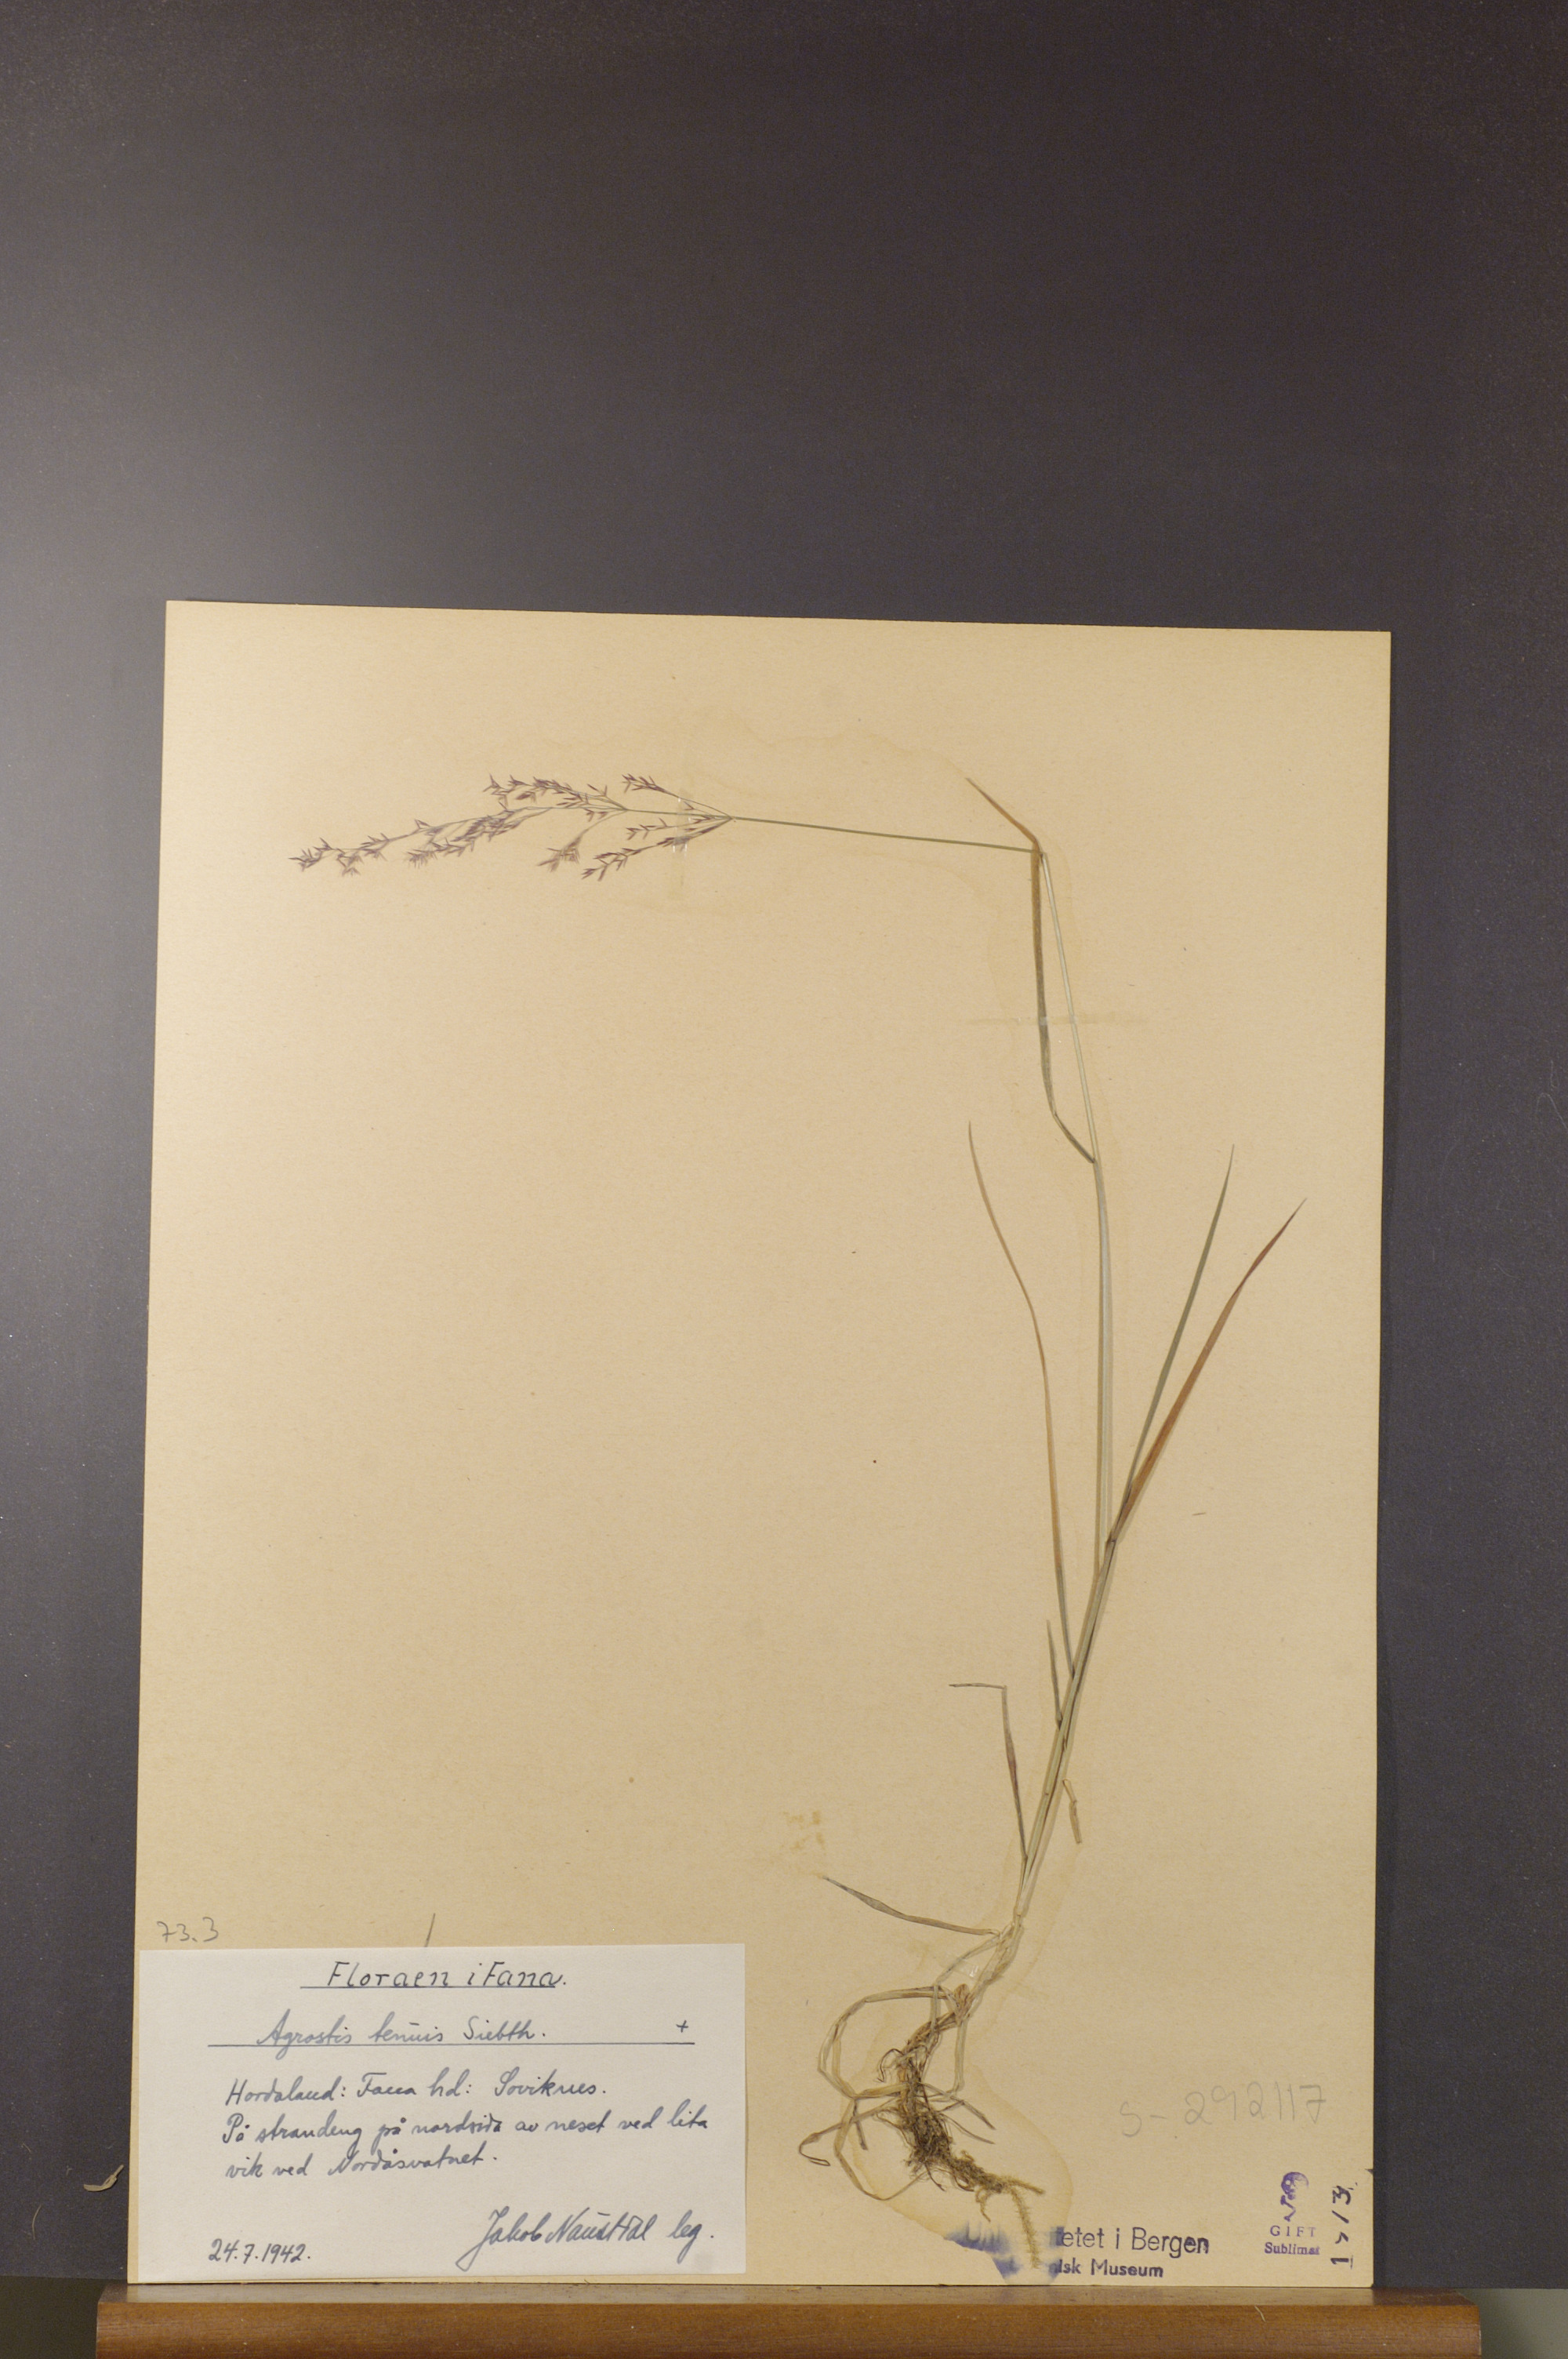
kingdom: Plantae
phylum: Tracheophyta
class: Liliopsida
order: Poales
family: Poaceae
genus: Agrostis
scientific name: Agrostis capillaris
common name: Colonial bentgrass
